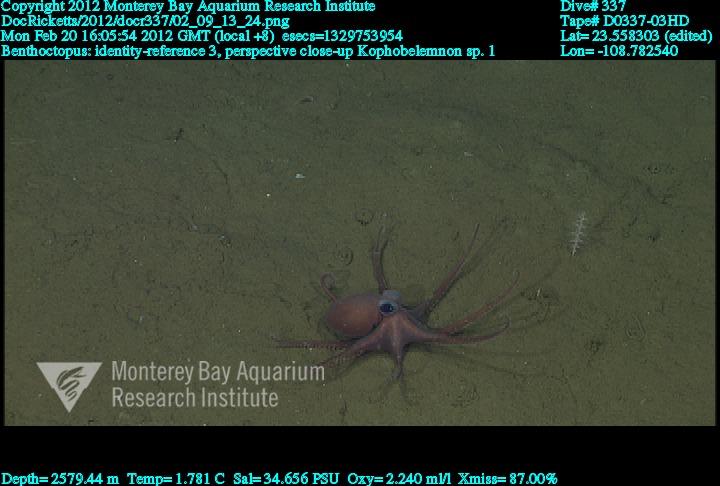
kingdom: Animalia
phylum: Cnidaria
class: Anthozoa
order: Scleralcyonacea
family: Kophobelemnidae
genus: Kophobelemnon
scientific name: Kophobelemnon
